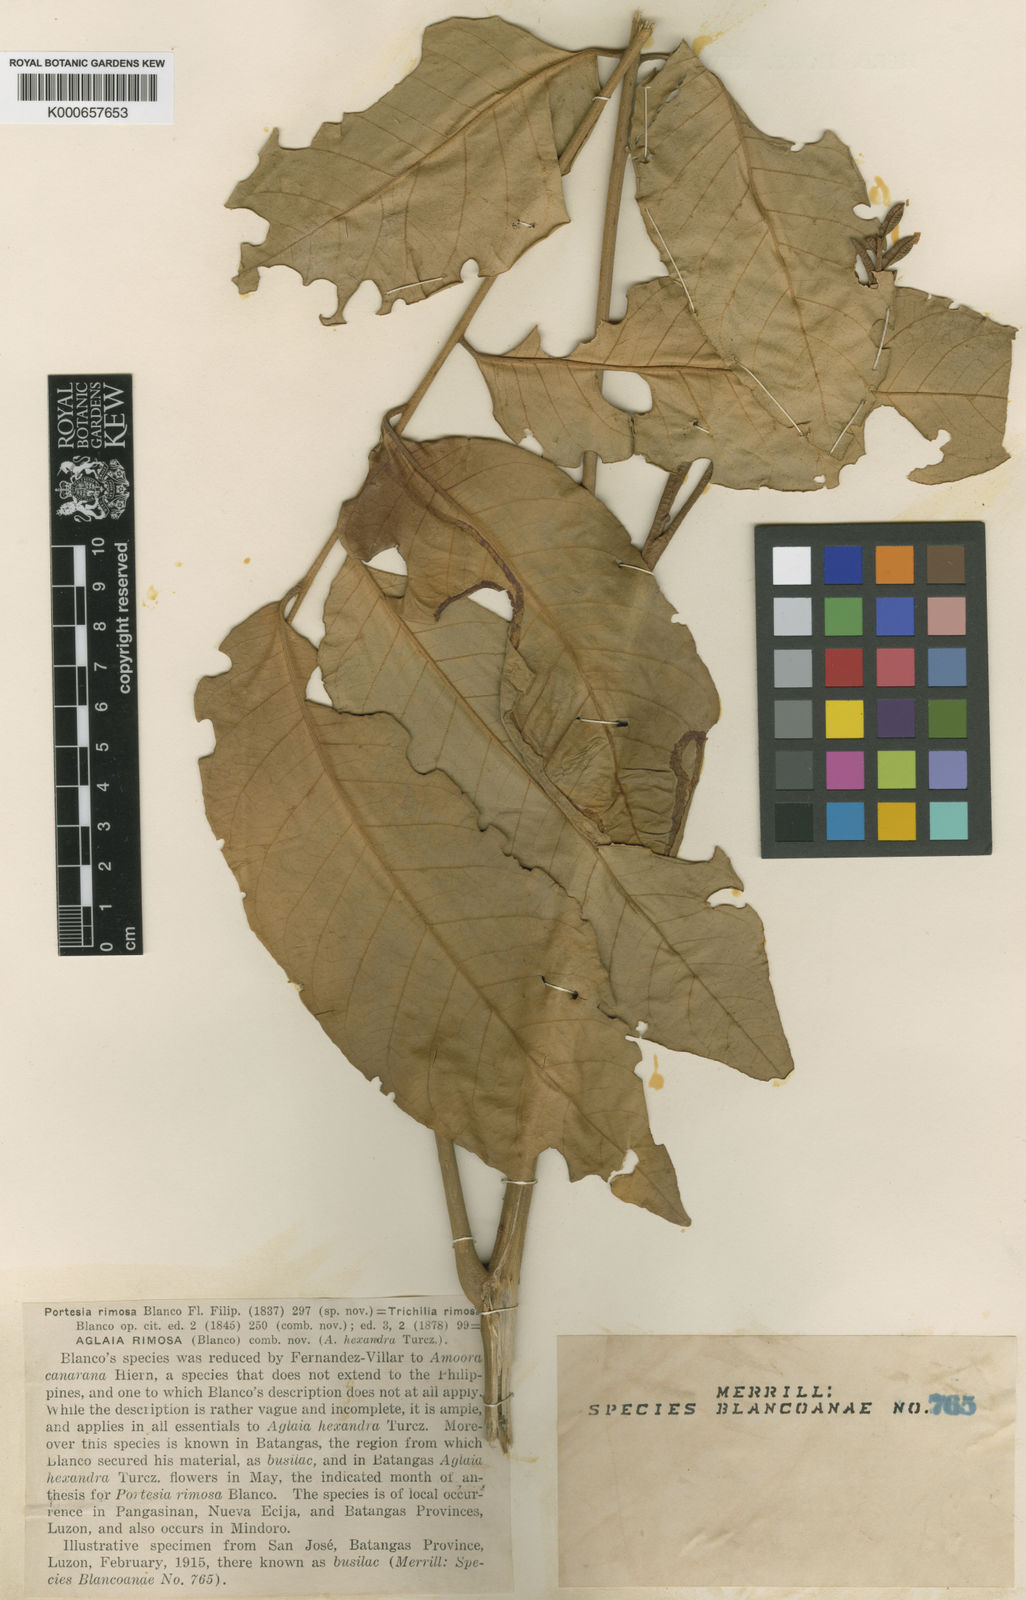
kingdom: Plantae
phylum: Tracheophyta
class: Magnoliopsida
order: Sapindales
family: Meliaceae
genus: Aglaia
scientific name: Aglaia rimosa
